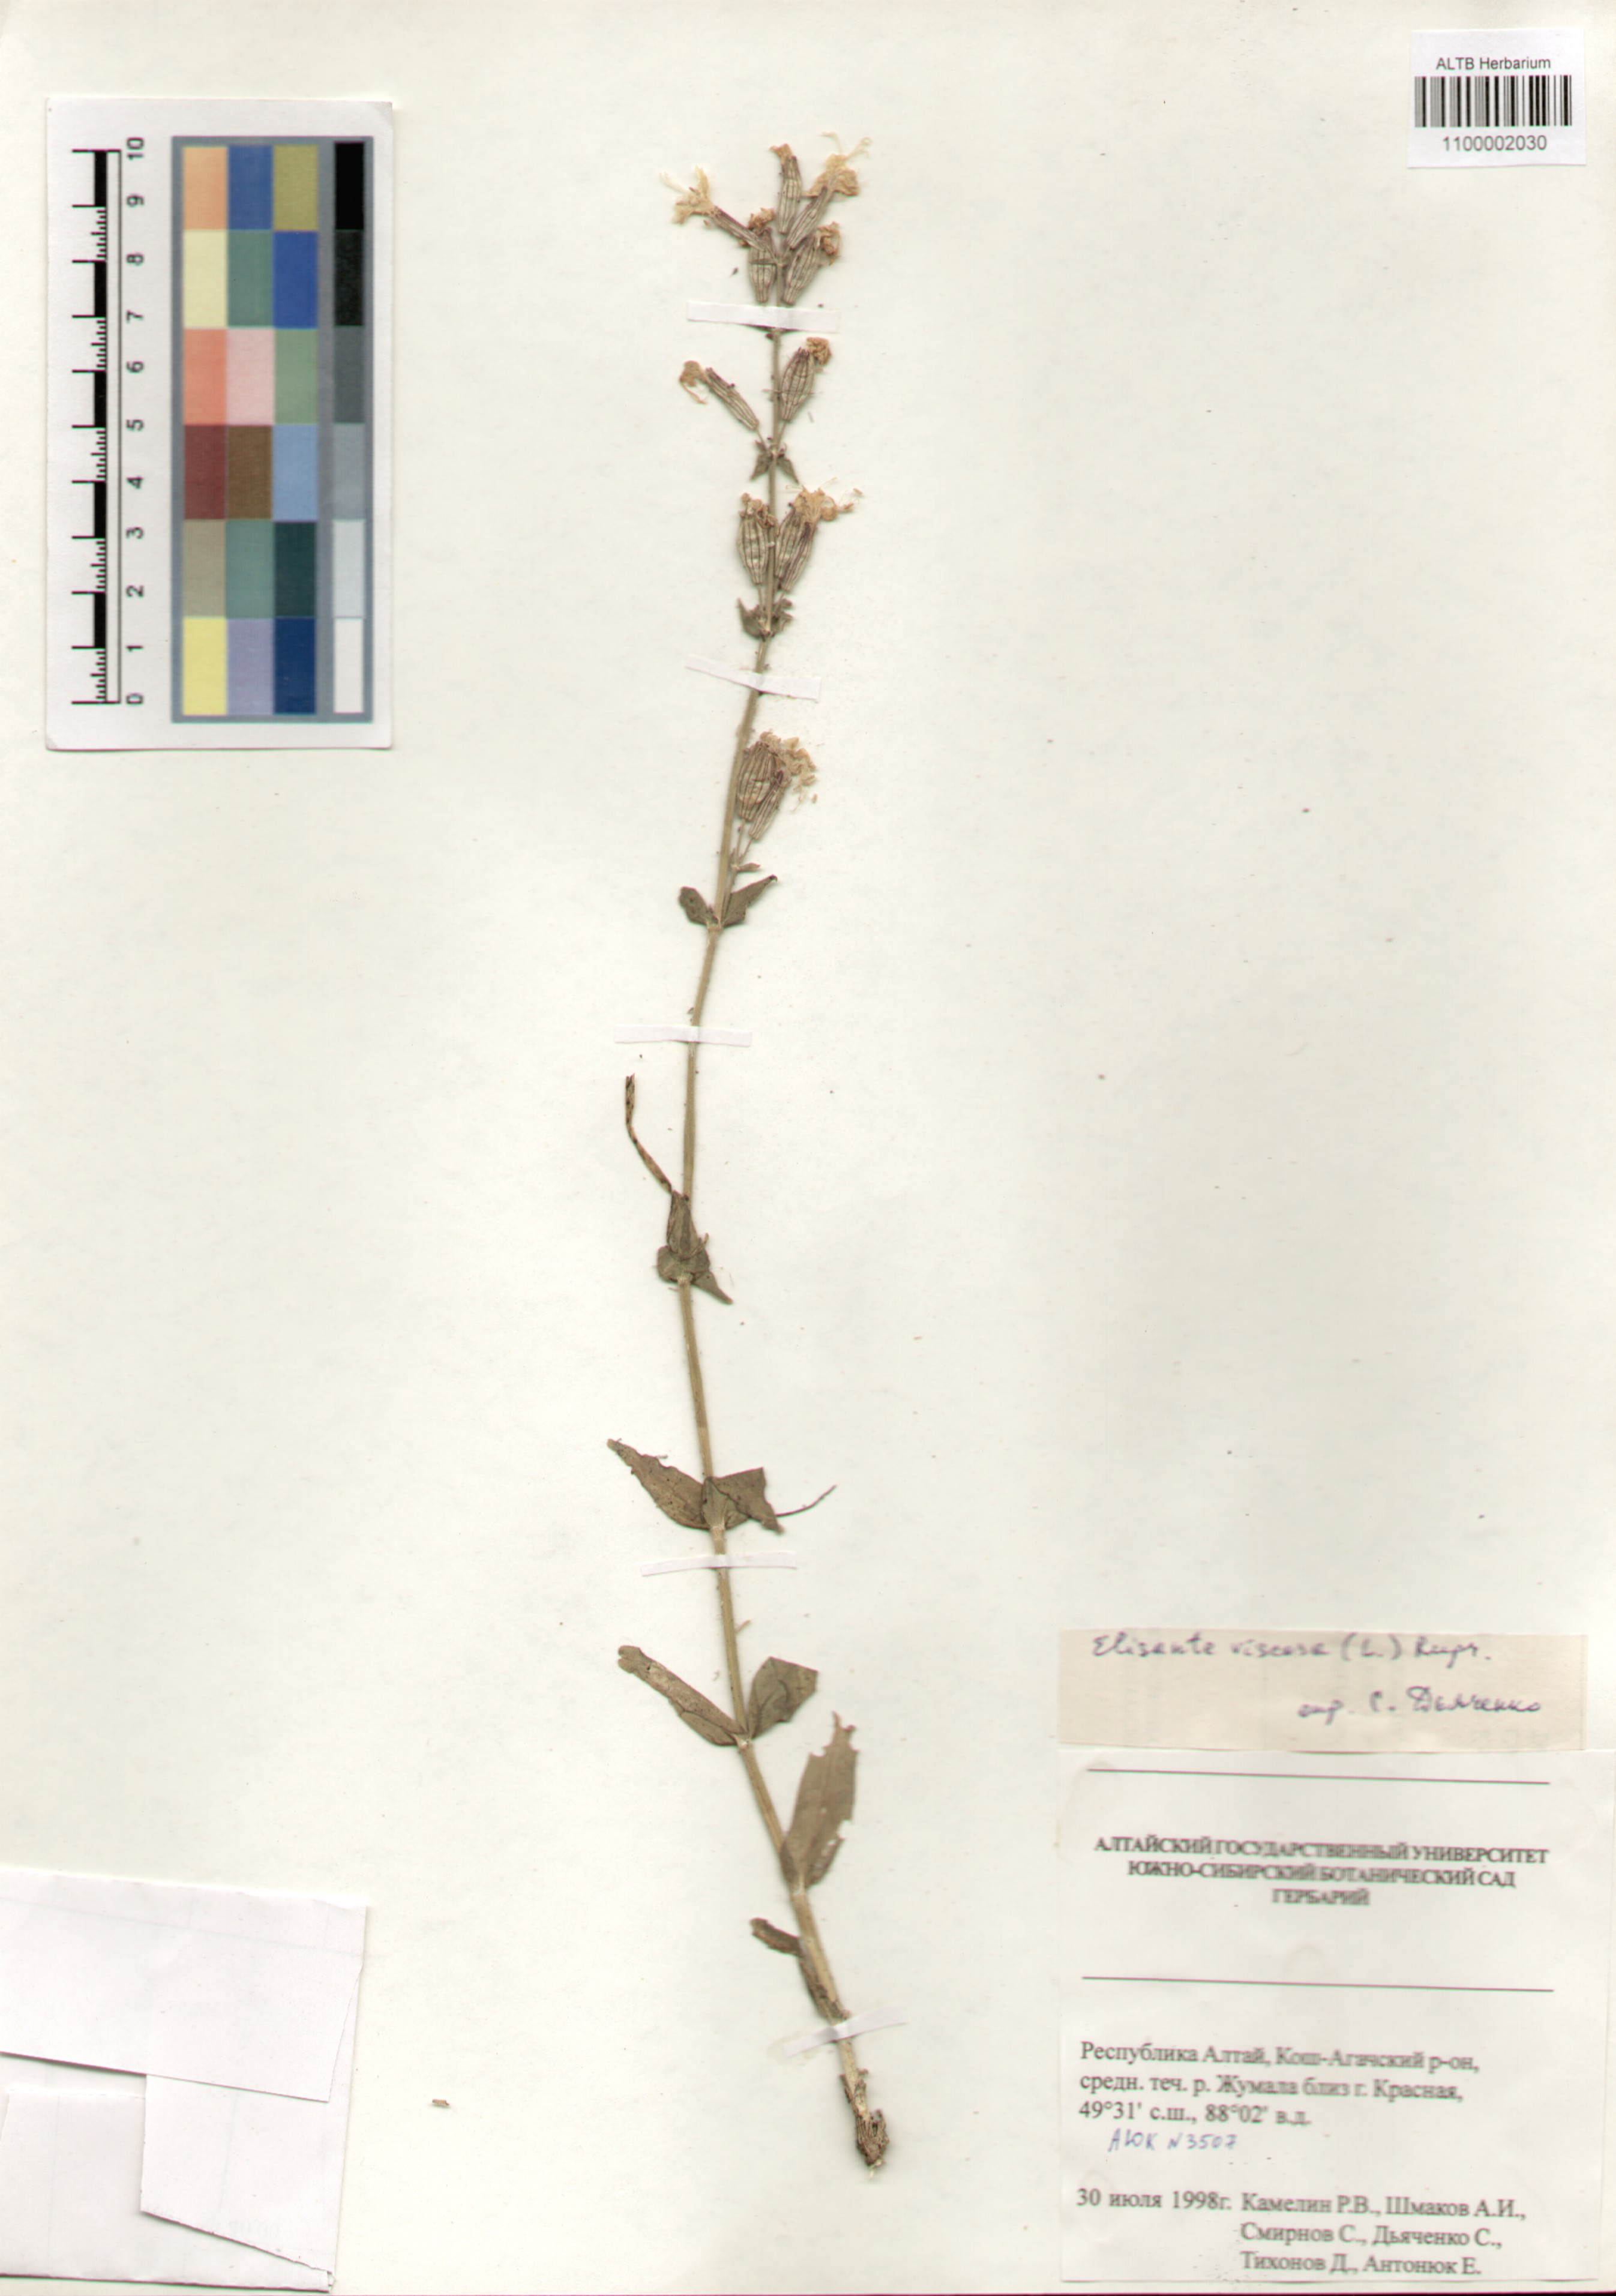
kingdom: Plantae
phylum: Tracheophyta
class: Magnoliopsida
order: Caryophyllales
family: Caryophyllaceae
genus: Silene
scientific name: Silene viscosa
